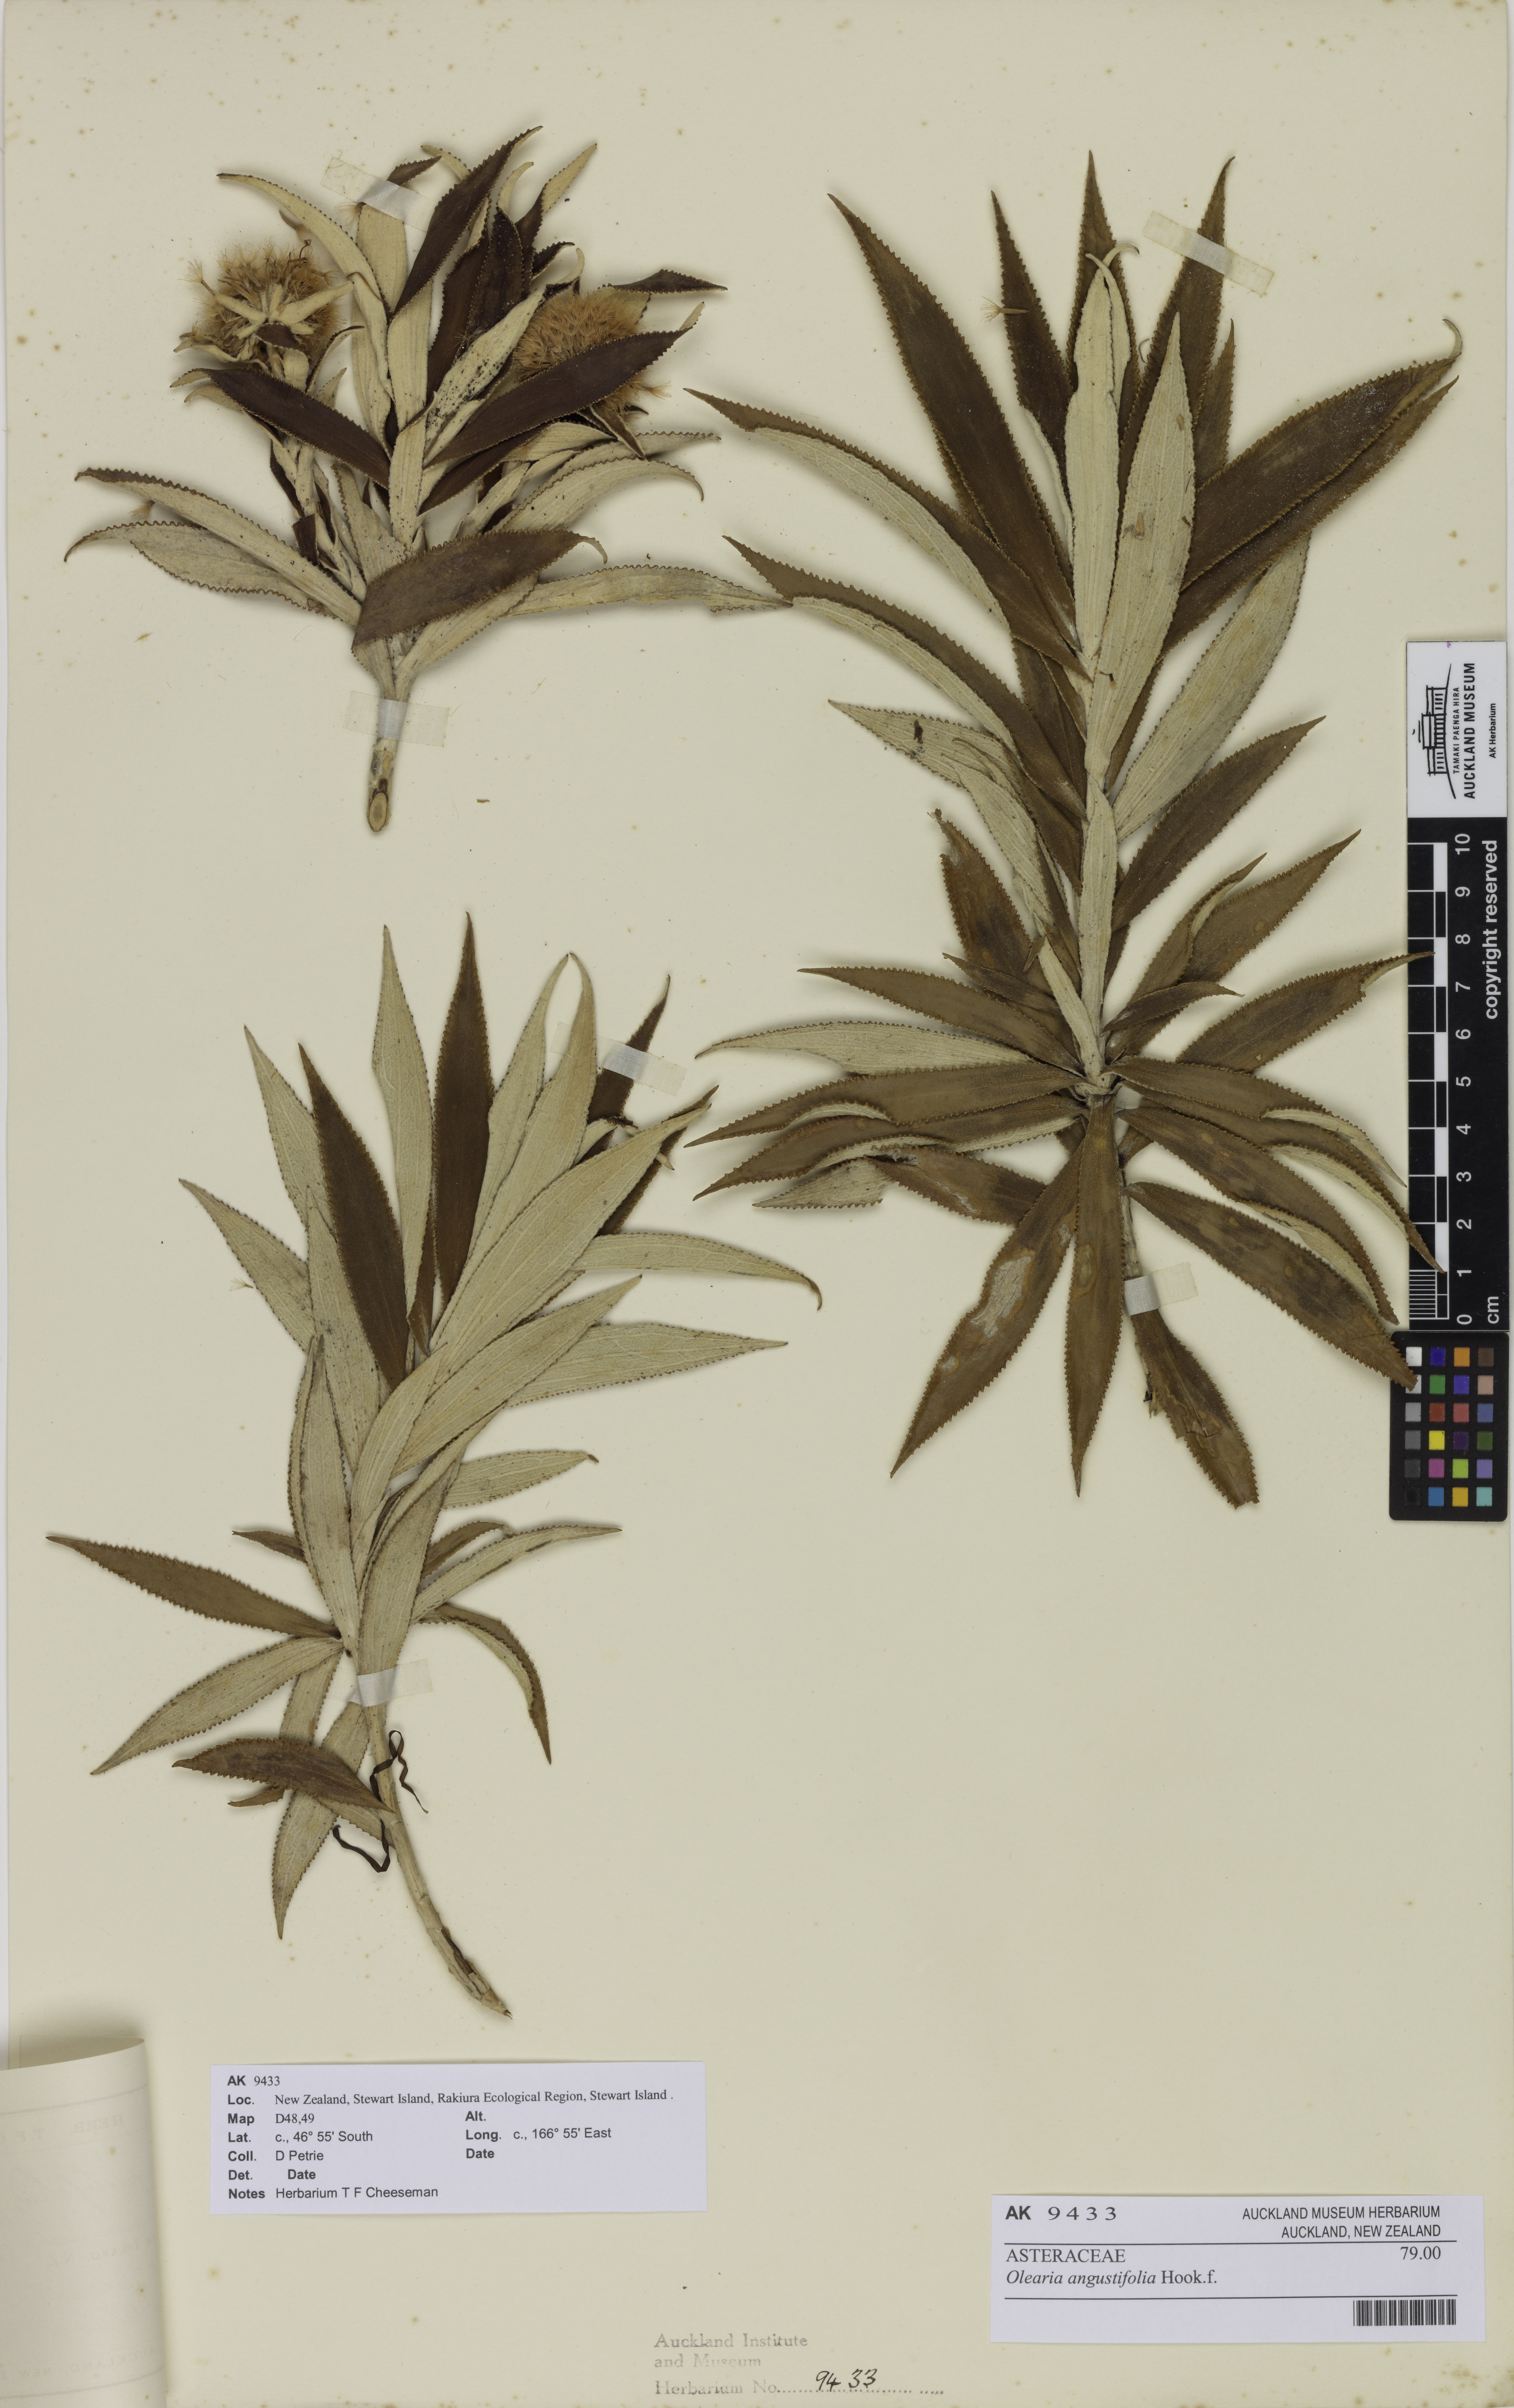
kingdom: Plantae
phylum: Tracheophyta
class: Magnoliopsida
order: Asterales
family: Asteraceae
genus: Macrolearia
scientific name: Macrolearia angustifolia
